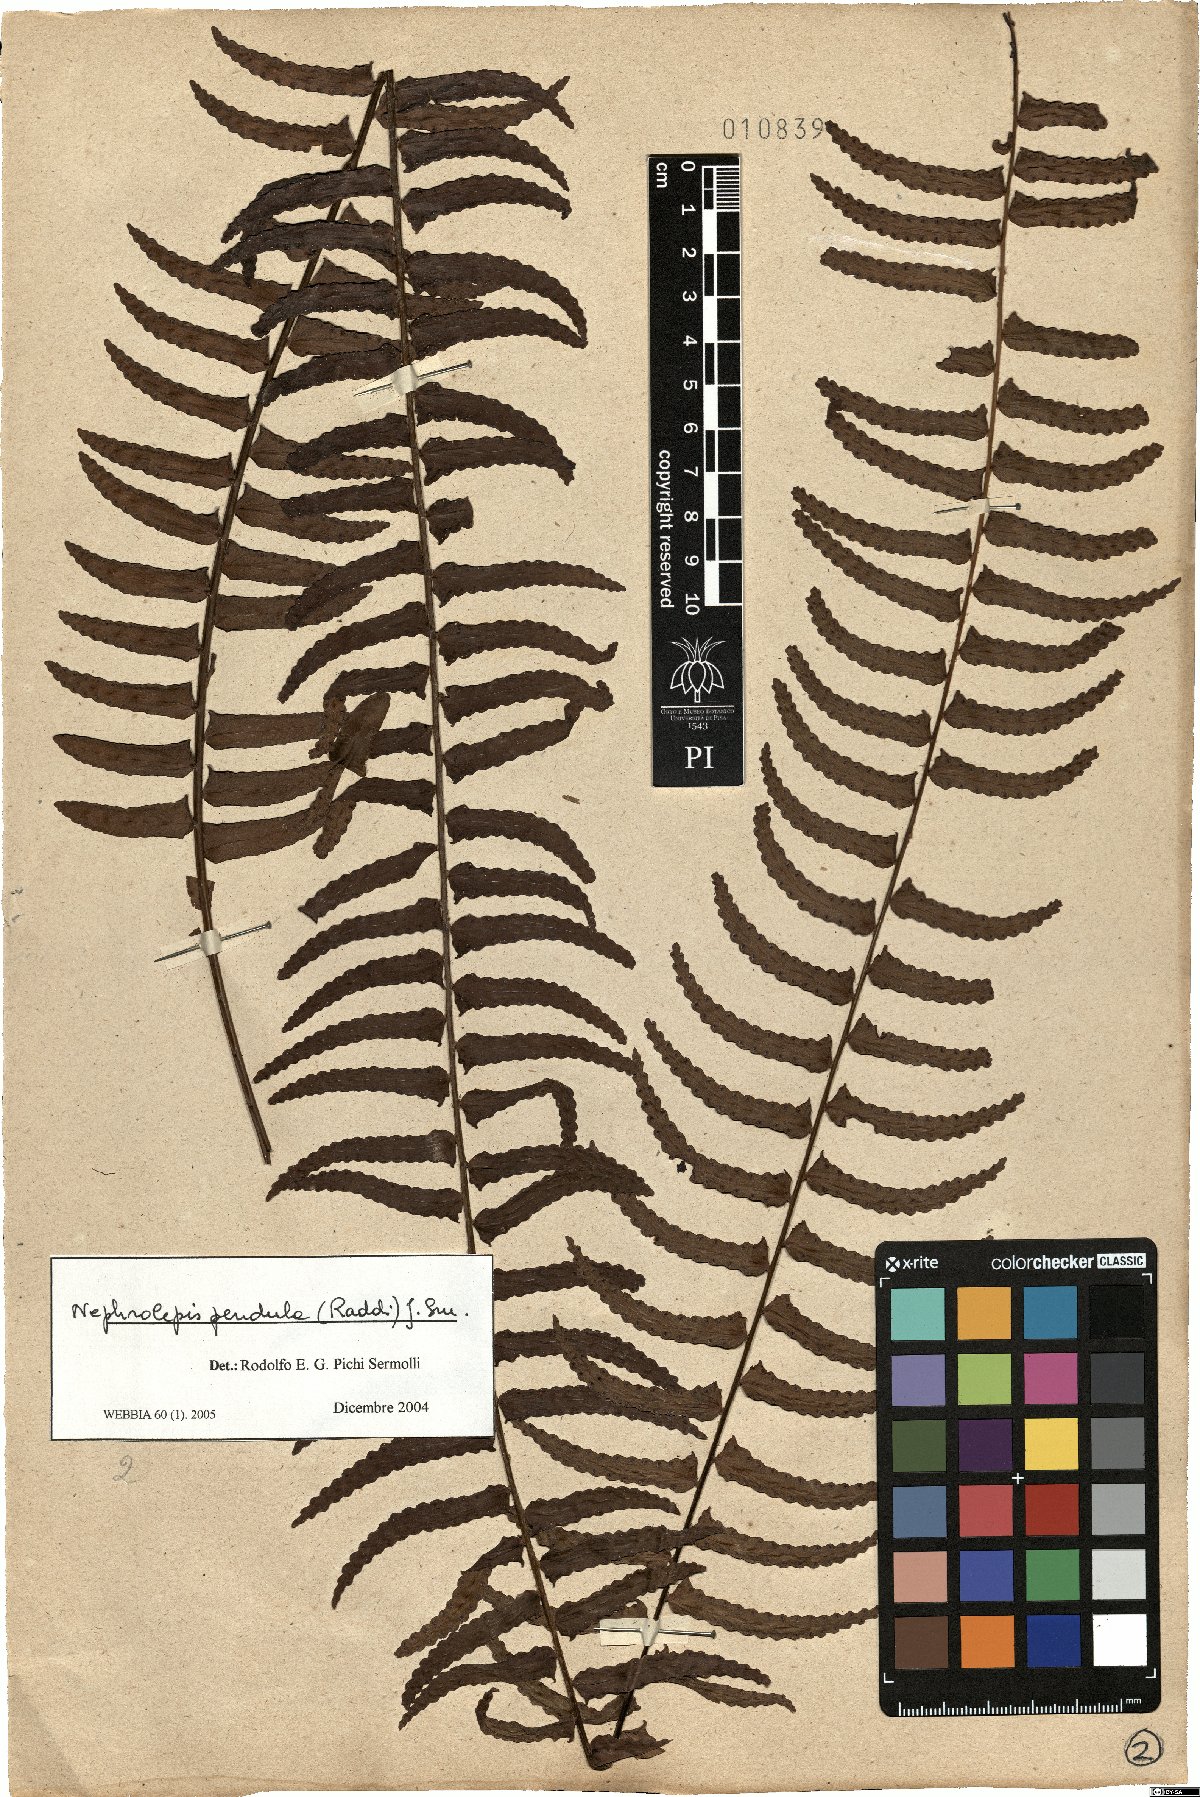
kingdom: Plantae
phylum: Tracheophyta
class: Polypodiopsida
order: Polypodiales
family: Nephrolepidaceae
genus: Nephrolepis
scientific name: Nephrolepis pendula
